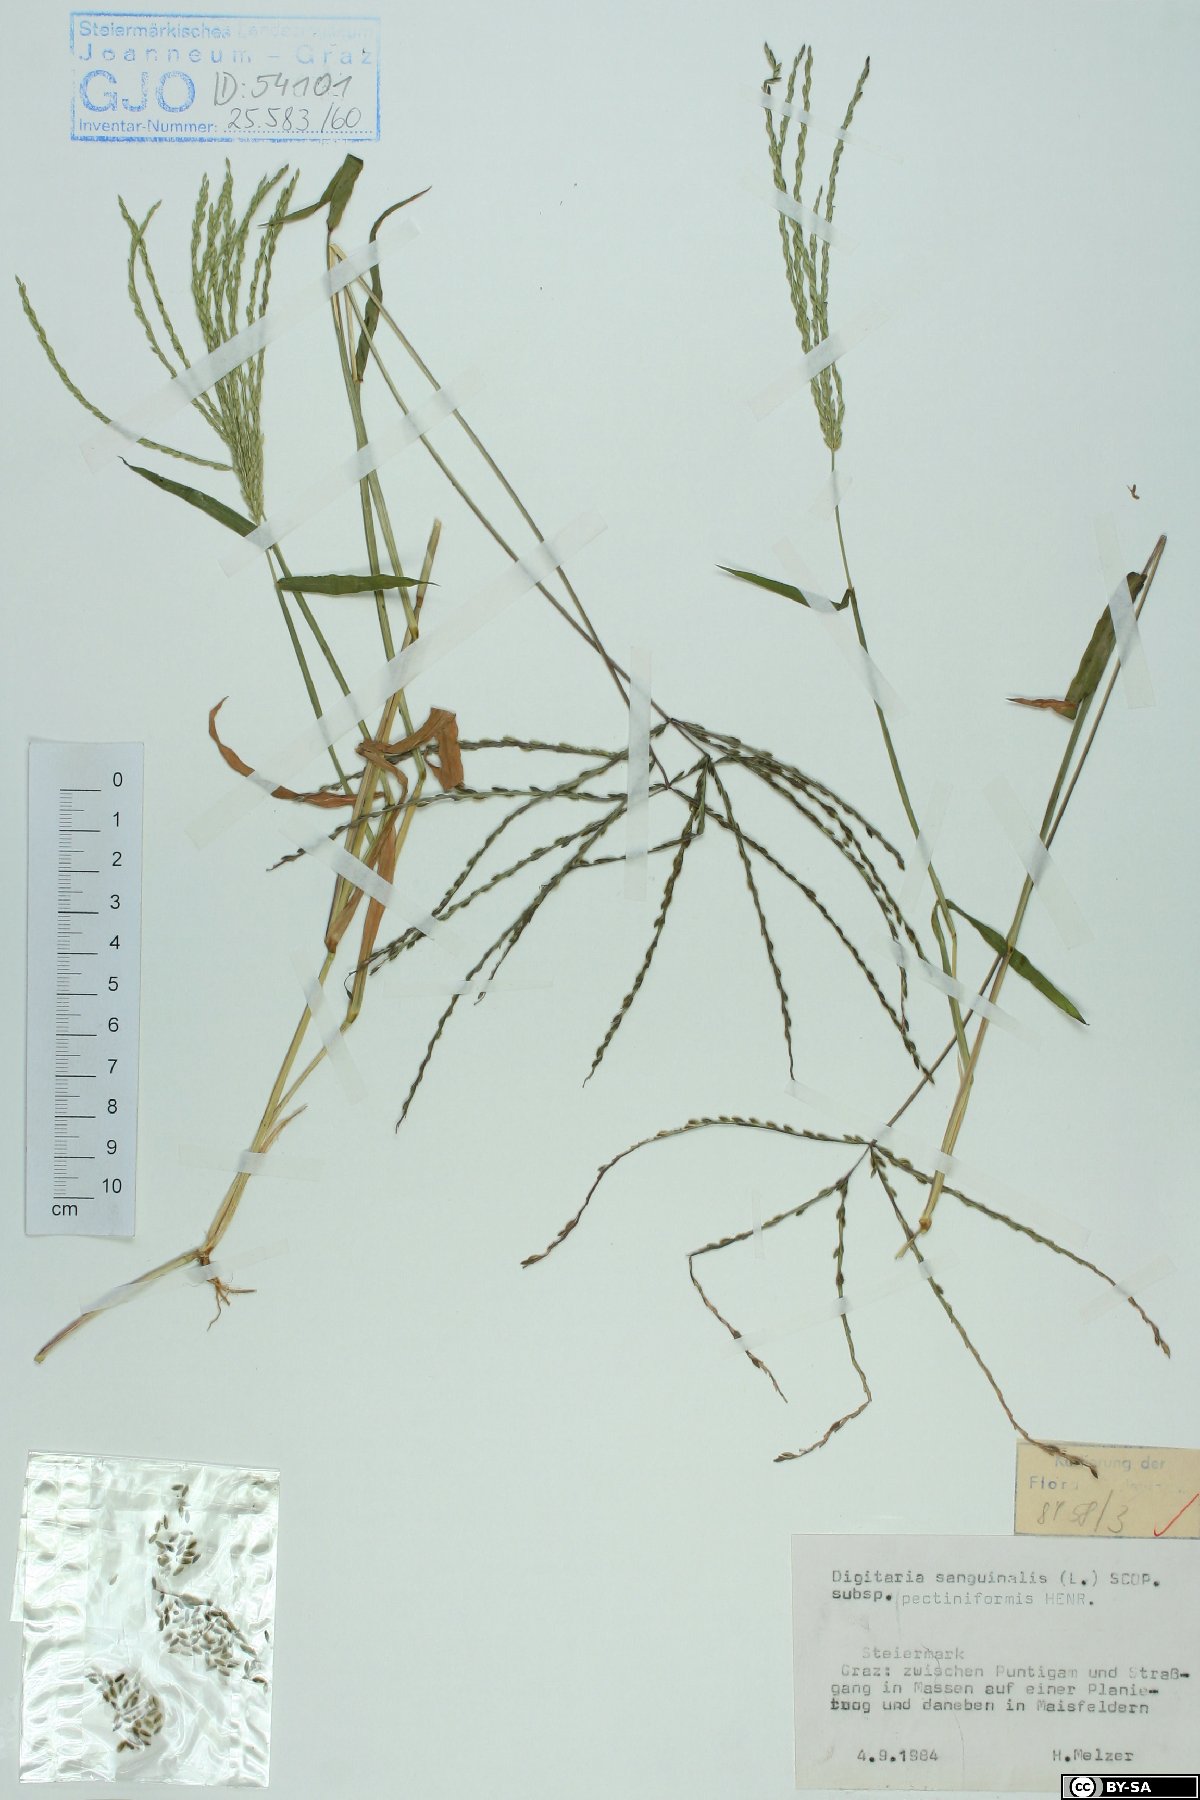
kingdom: Plantae
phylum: Tracheophyta
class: Liliopsida
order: Poales
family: Poaceae
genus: Digitaria
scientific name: Digitaria sanguinalis
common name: Hairy crabgrass
